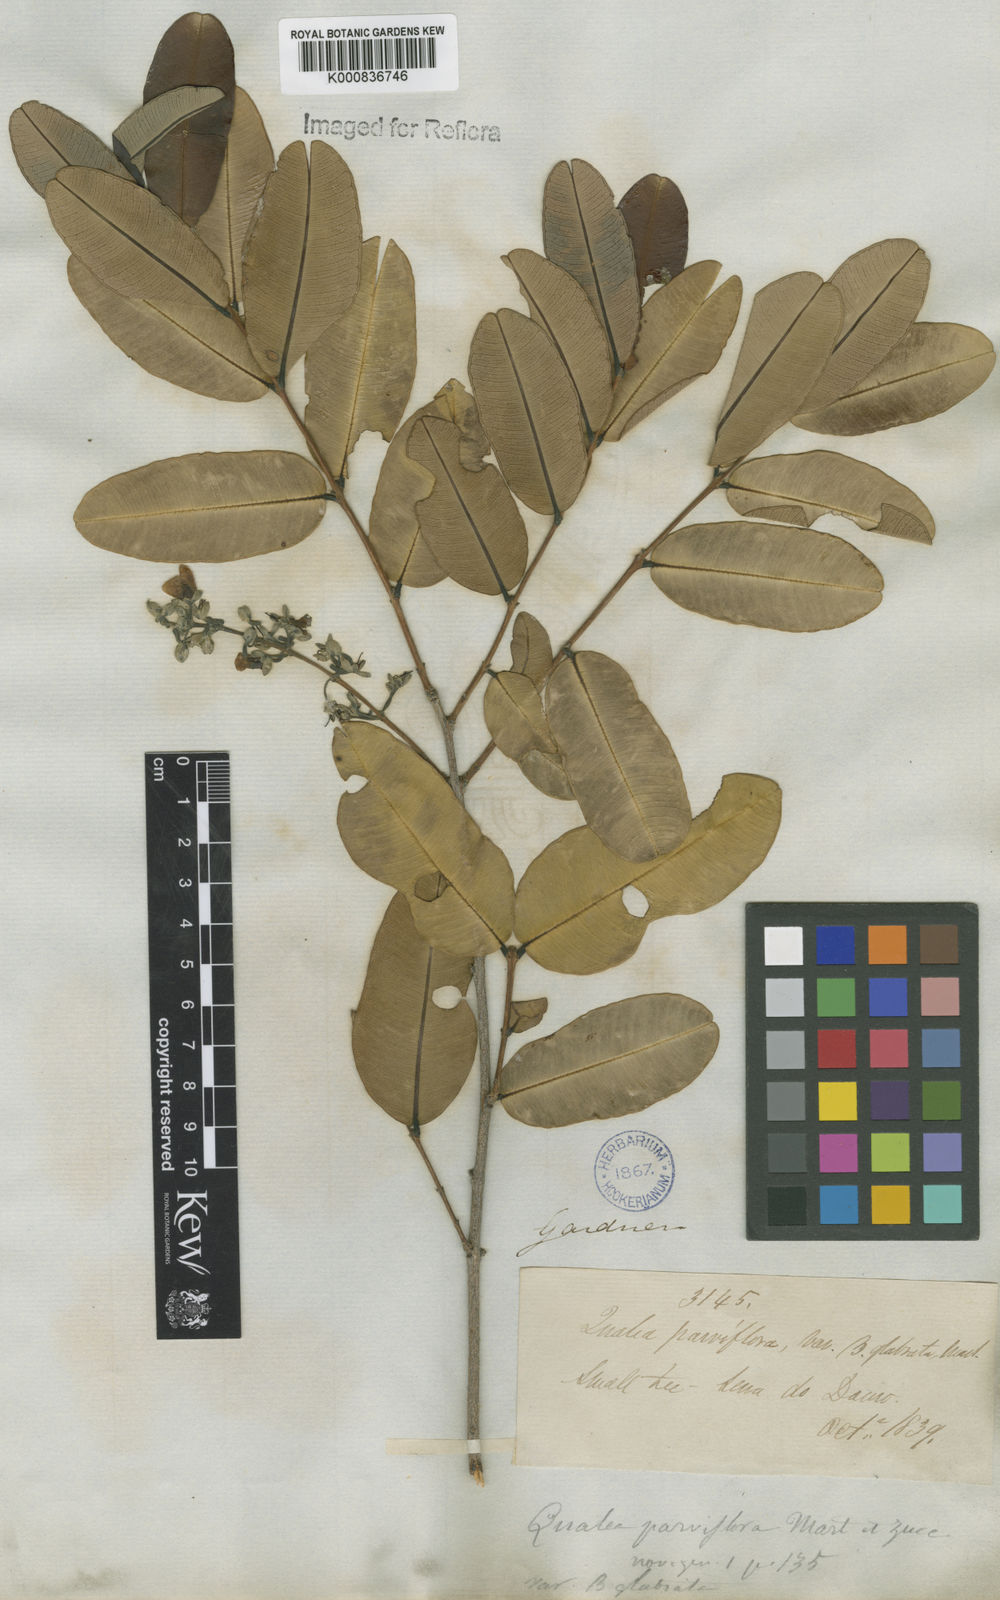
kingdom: Plantae
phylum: Tracheophyta
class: Magnoliopsida
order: Myrtales
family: Vochysiaceae
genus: Qualea
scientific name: Qualea parviflora
